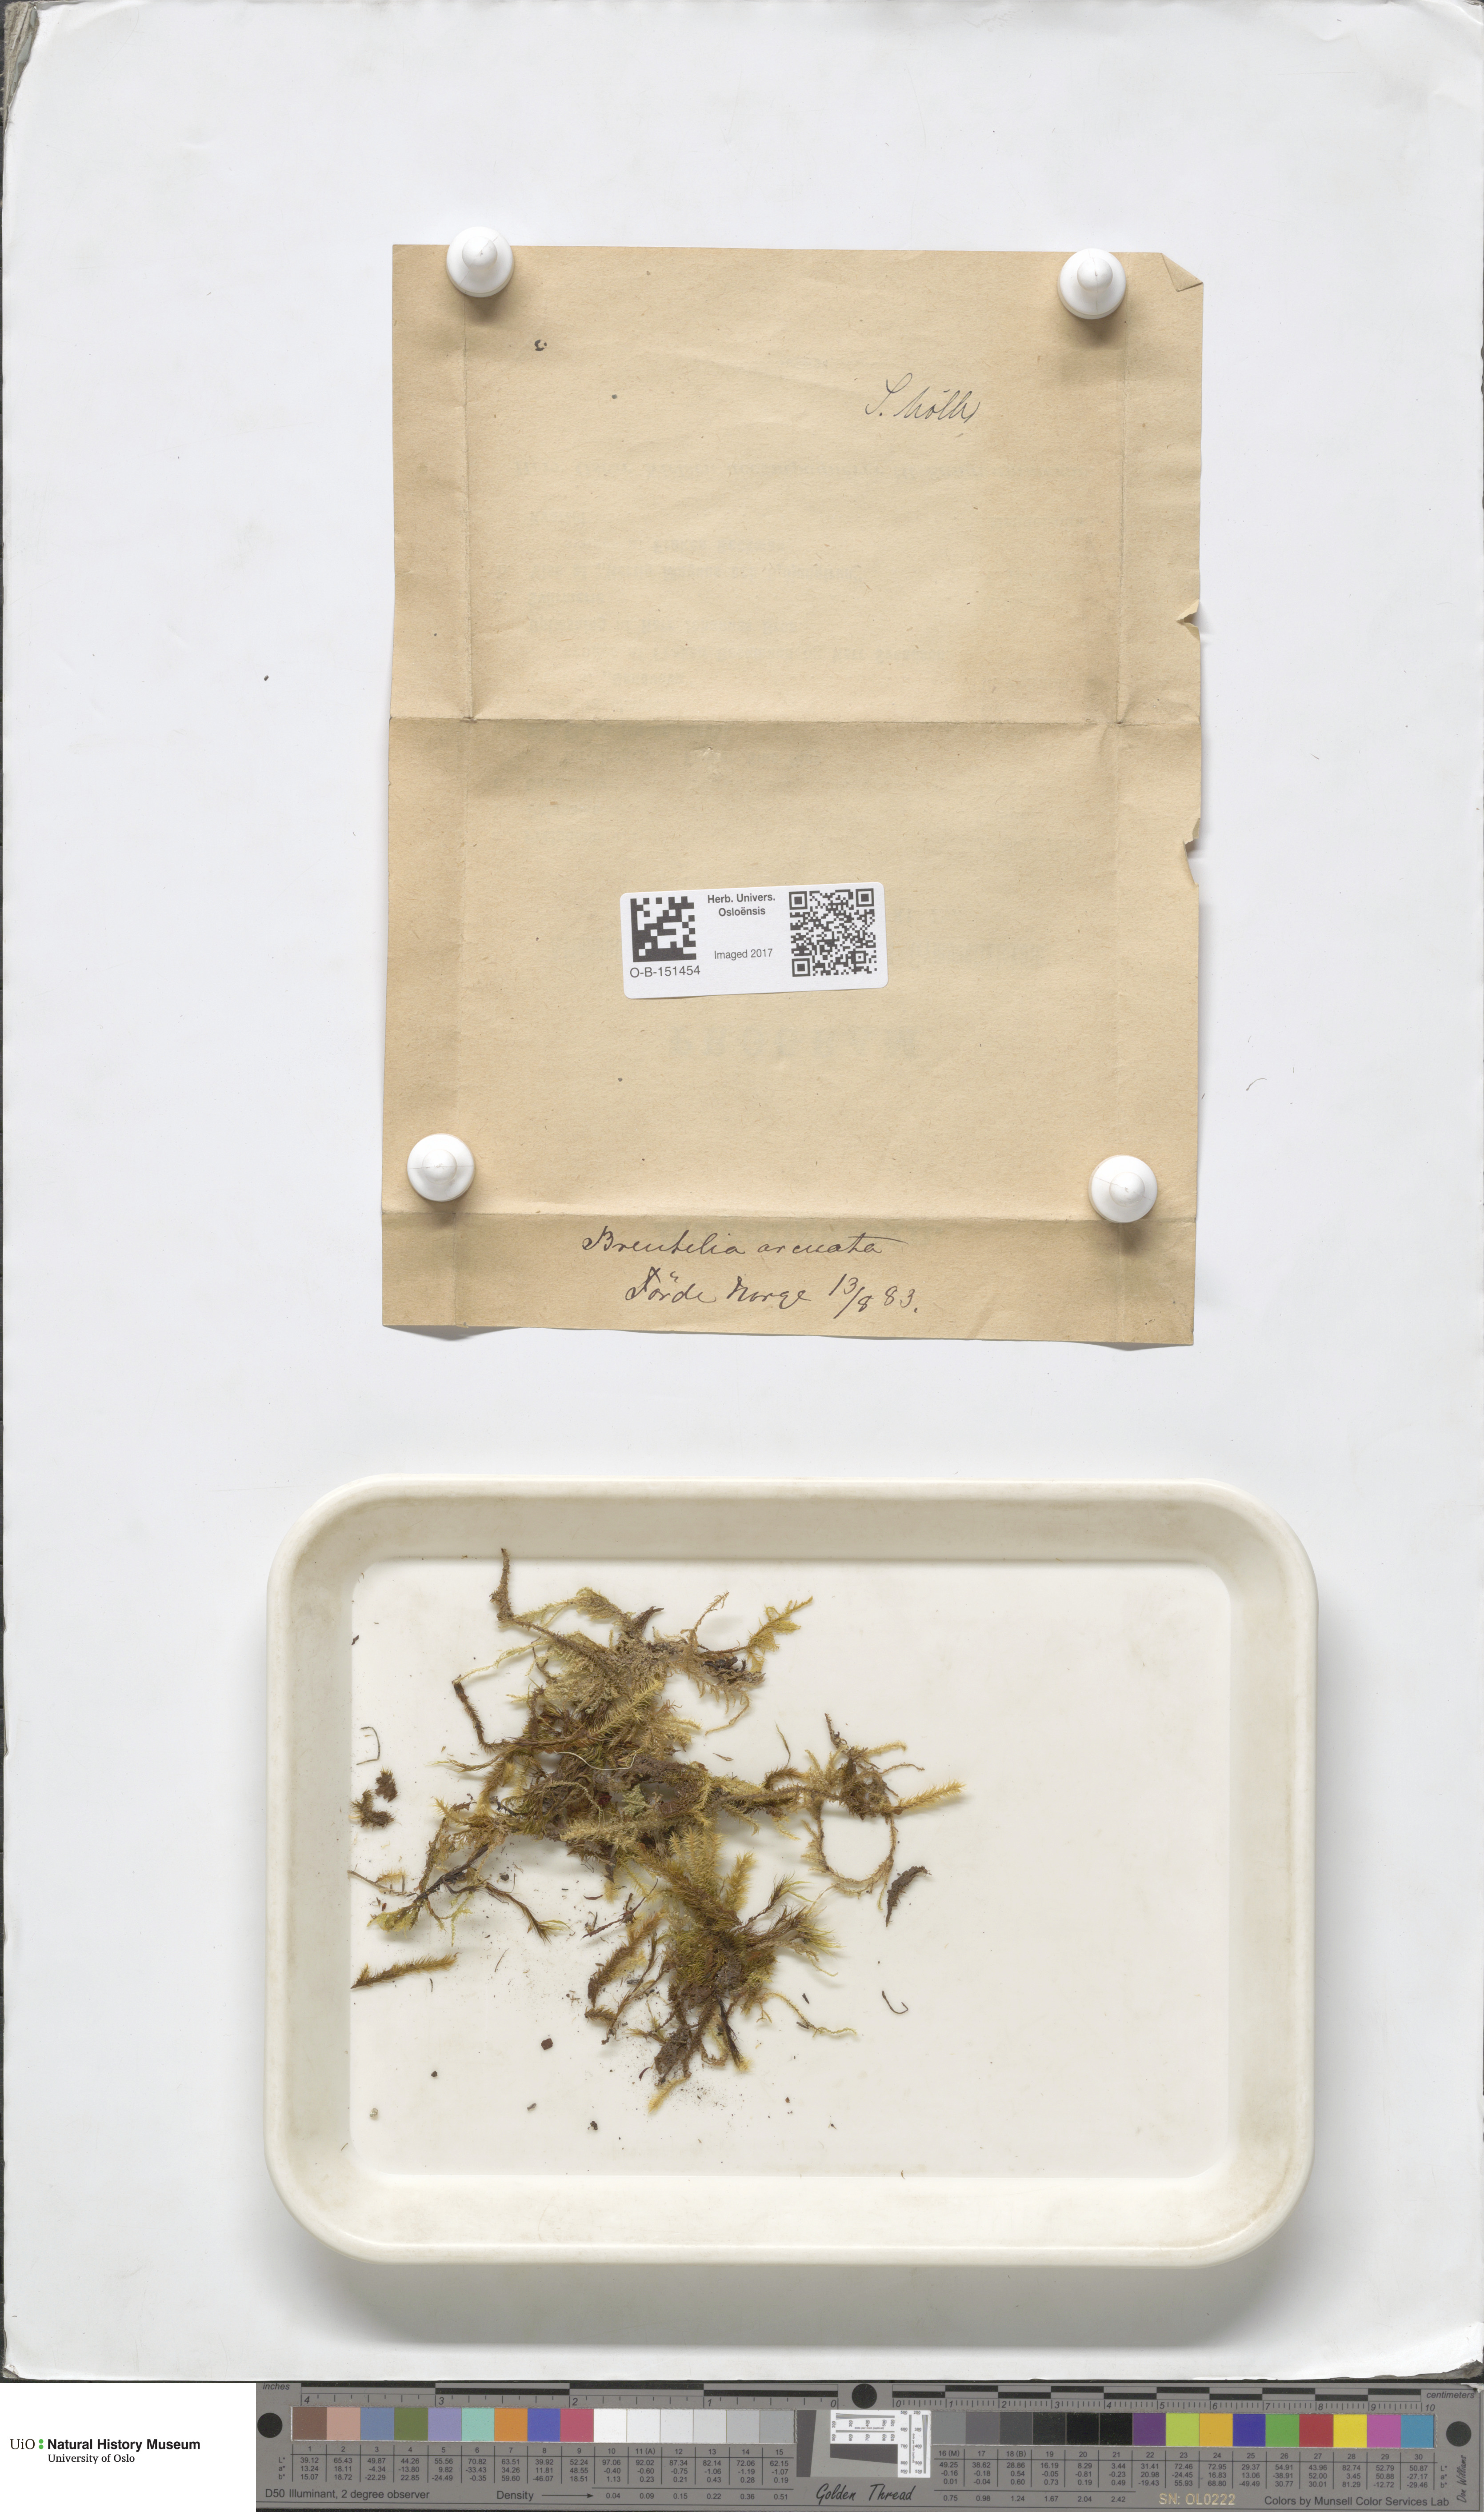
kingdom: Plantae
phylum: Bryophyta
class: Bryopsida
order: Bartramiales
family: Bartramiaceae
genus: Breutelia
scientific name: Breutelia chrysocoma
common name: Bottle-brush moss
